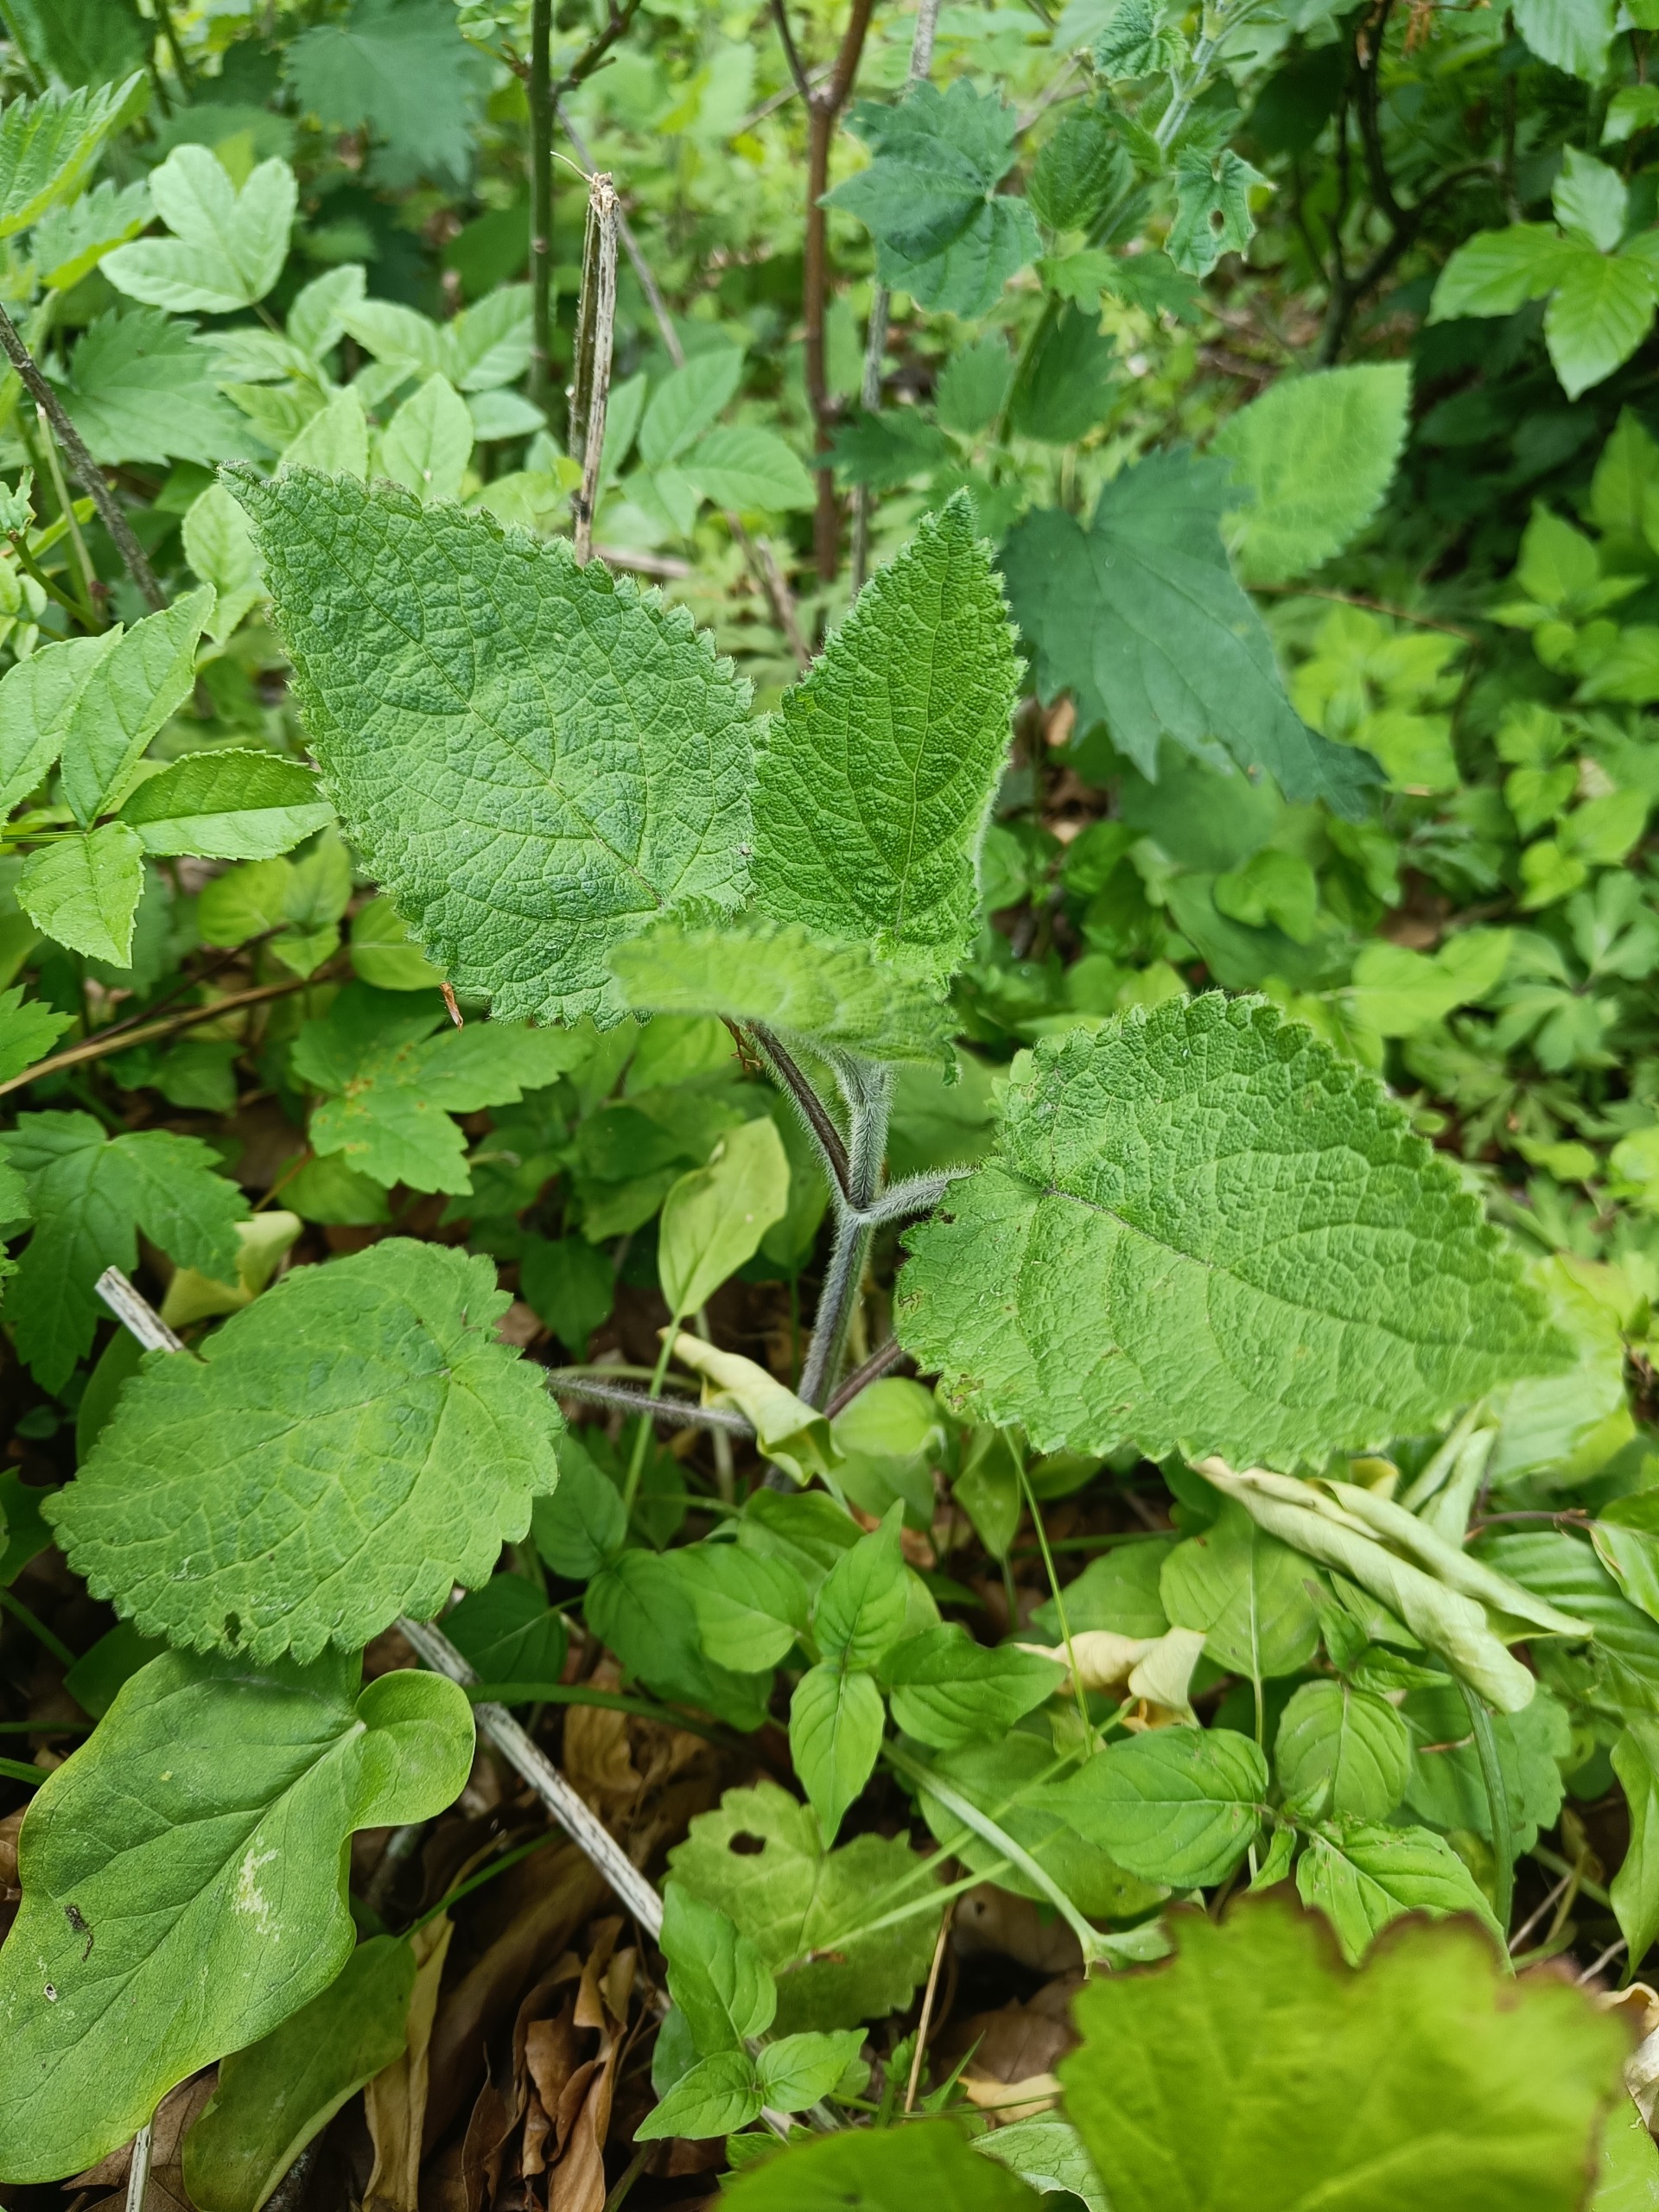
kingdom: Plantae
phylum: Tracheophyta
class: Magnoliopsida
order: Lamiales
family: Lamiaceae
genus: Stachys
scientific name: Stachys sylvatica
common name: Skov-galtetand
